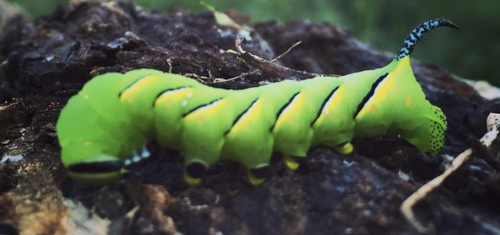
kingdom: Animalia
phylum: Arthropoda
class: Insecta
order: Lepidoptera
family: Sphingidae
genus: Sphinx
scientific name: Sphinx kalmiae
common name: Laurel sphinx
